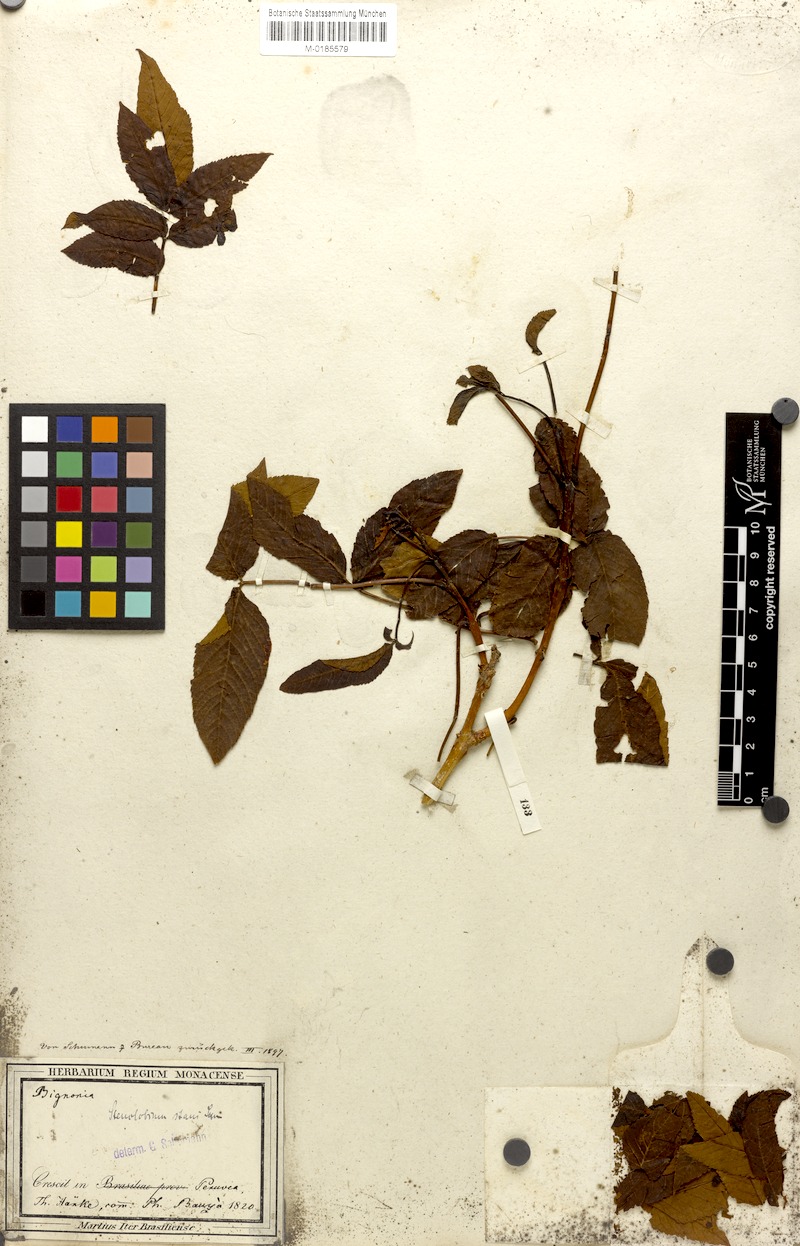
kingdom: Plantae
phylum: Tracheophyta
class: Magnoliopsida
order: Lamiales
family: Bignoniaceae
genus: Tecoma
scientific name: Tecoma stans
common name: Yellow trumpetbush
